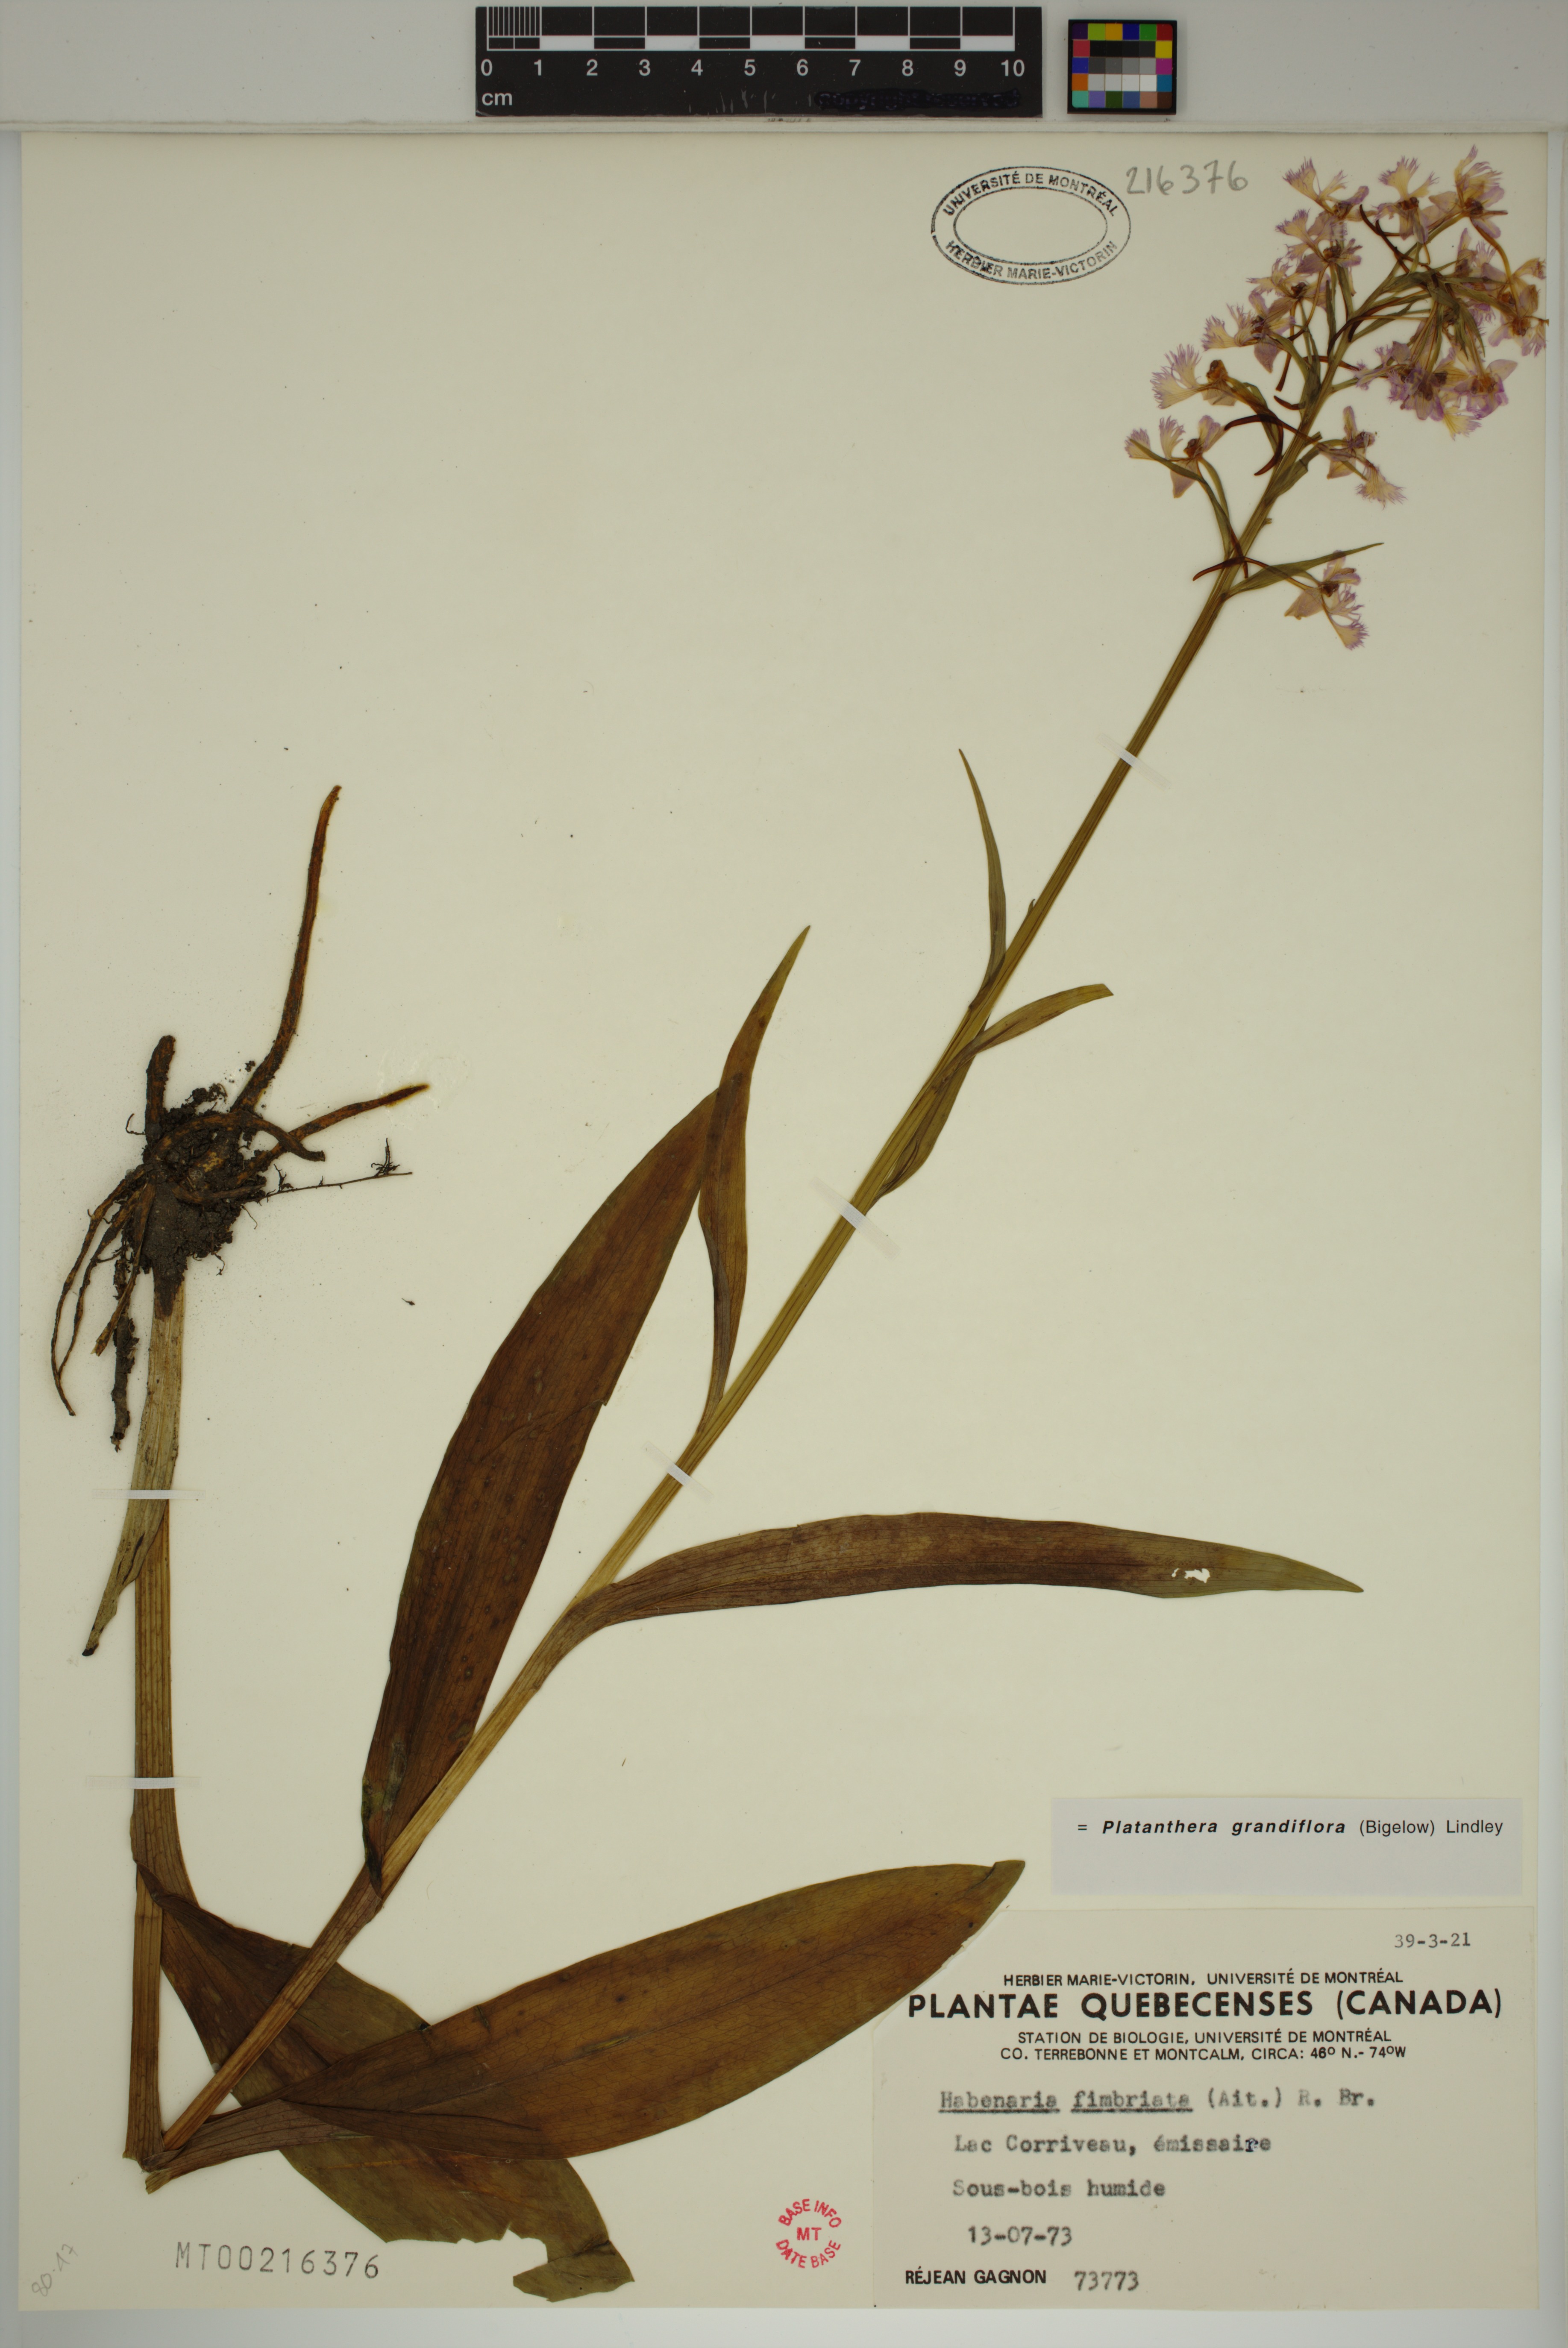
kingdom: Plantae
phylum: Tracheophyta
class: Liliopsida
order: Asparagales
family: Orchidaceae
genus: Platanthera
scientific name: Platanthera grandiflora
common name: Greater purple fringed orchid
